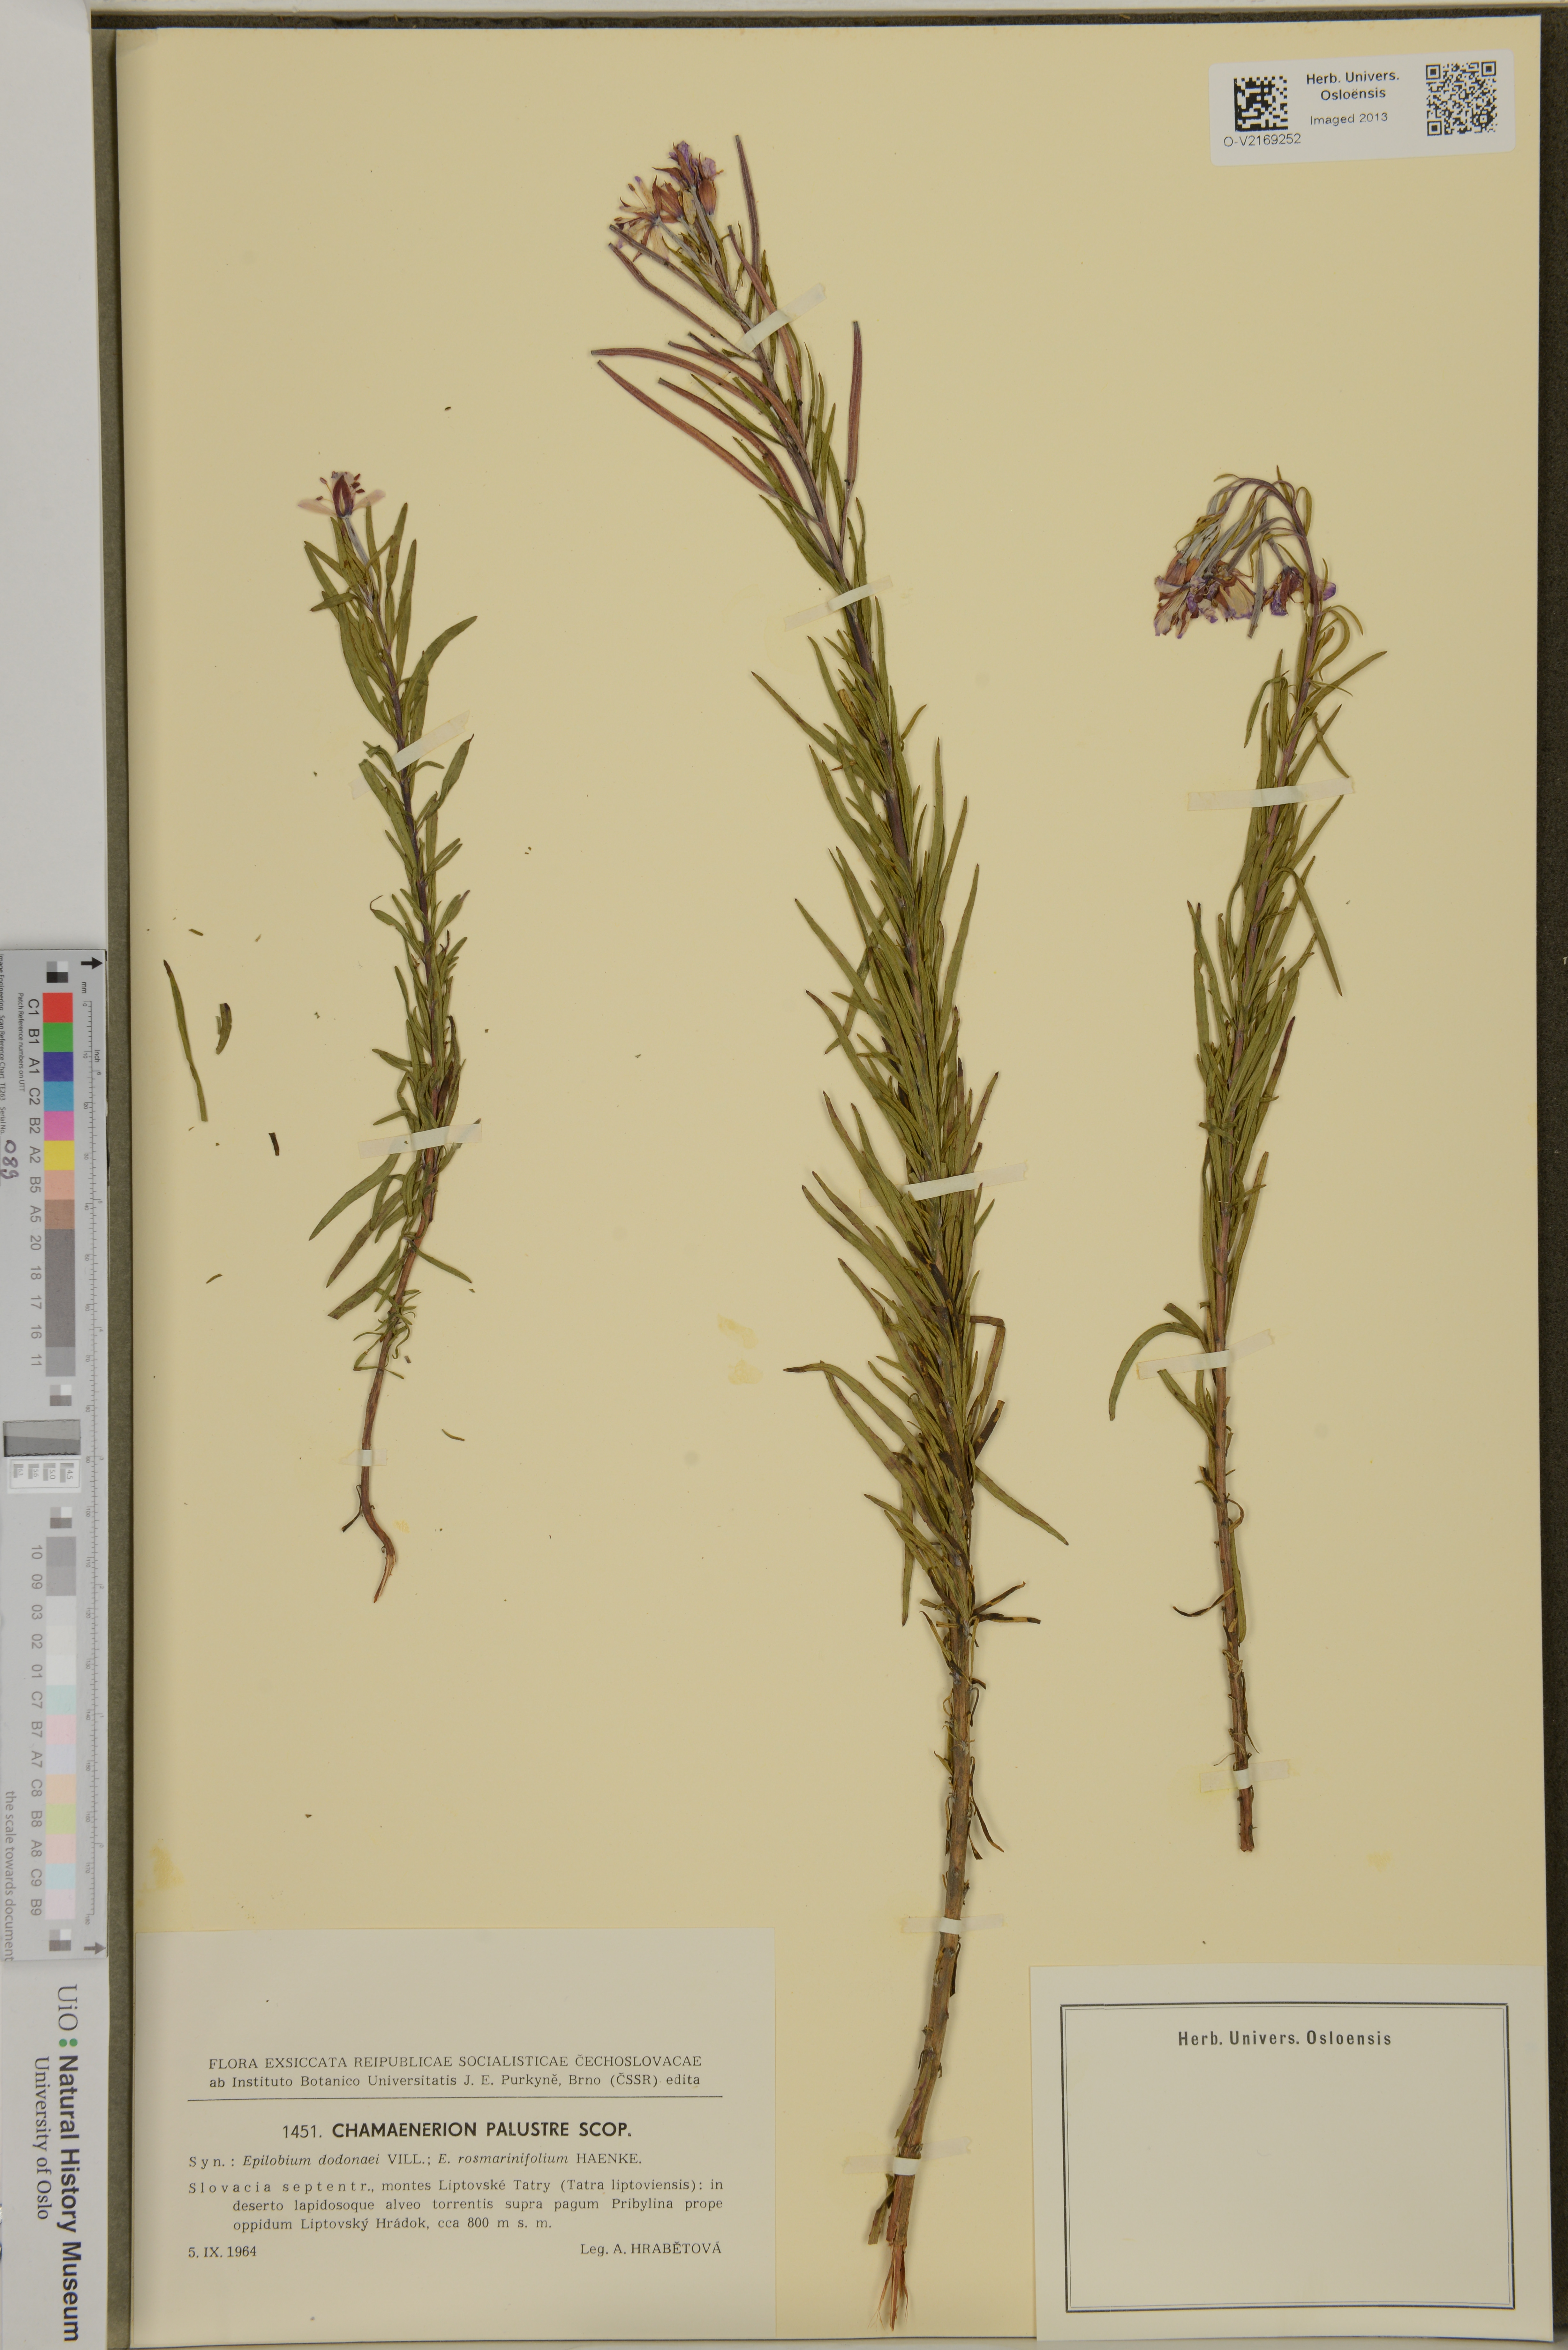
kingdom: Plantae
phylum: Tracheophyta
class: Magnoliopsida
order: Myrtales
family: Onagraceae
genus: Epilobium
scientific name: Epilobium
